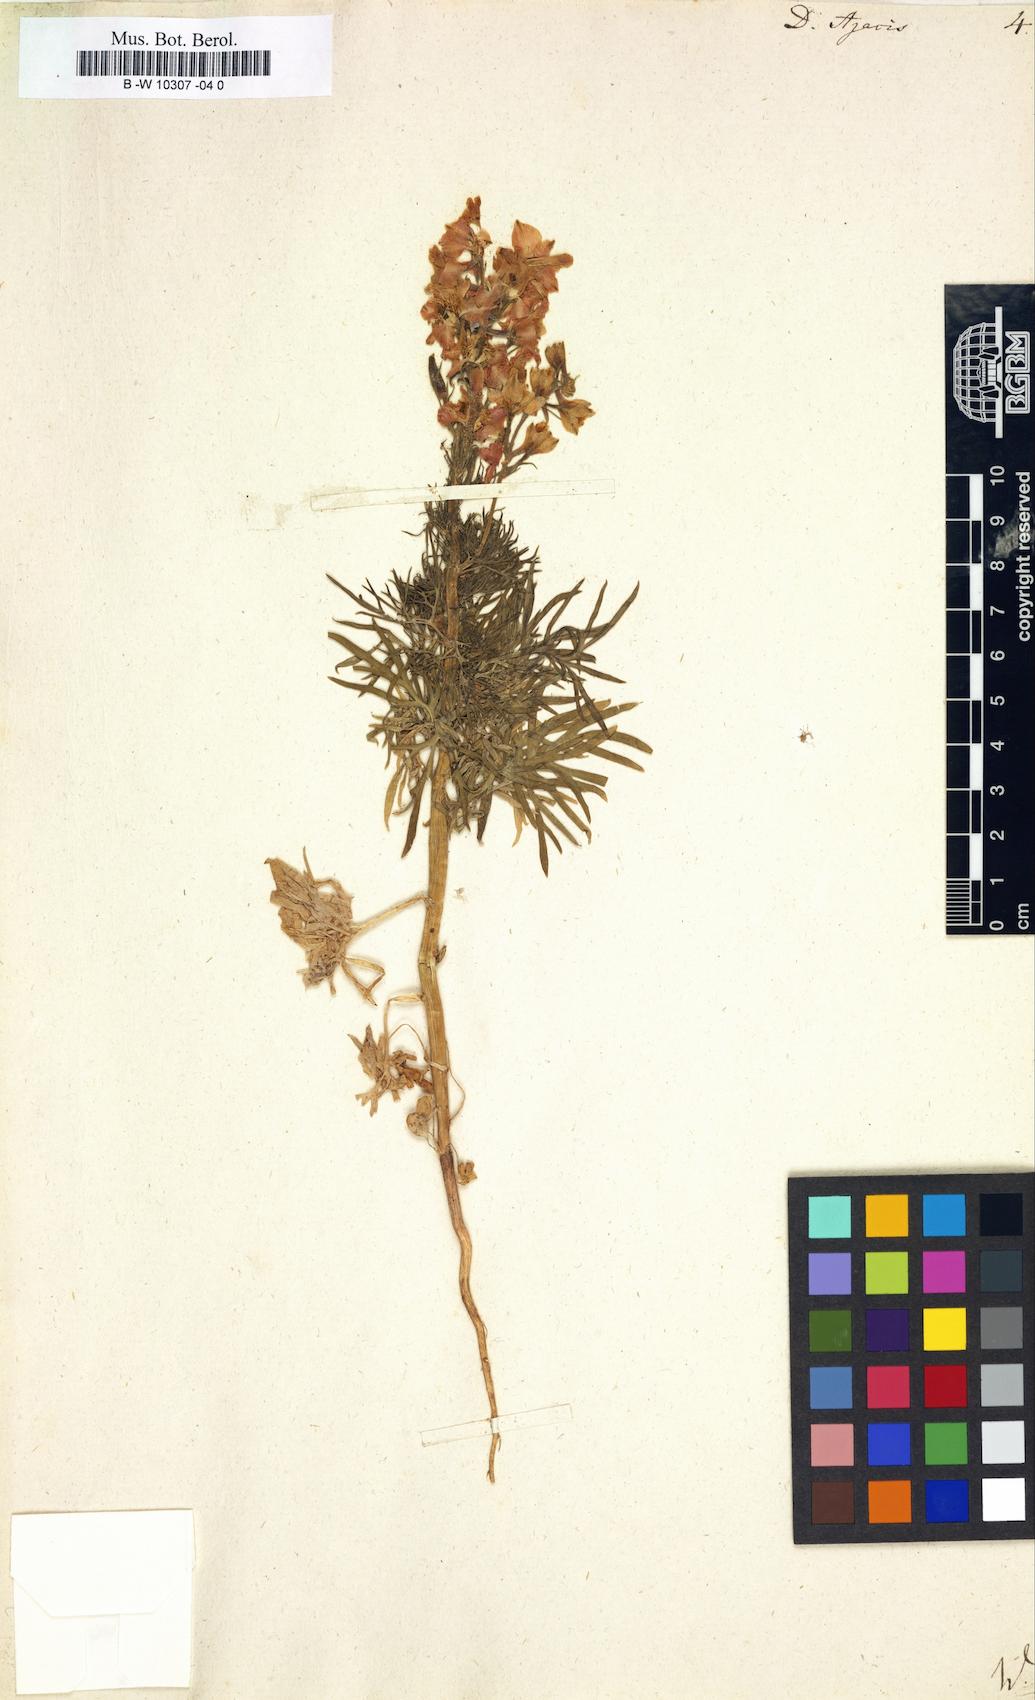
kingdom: Plantae
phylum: Tracheophyta
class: Magnoliopsida
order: Ranunculales
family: Ranunculaceae
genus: Delphinium
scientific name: Delphinium ajacis
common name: Doubtful knight's-spur
